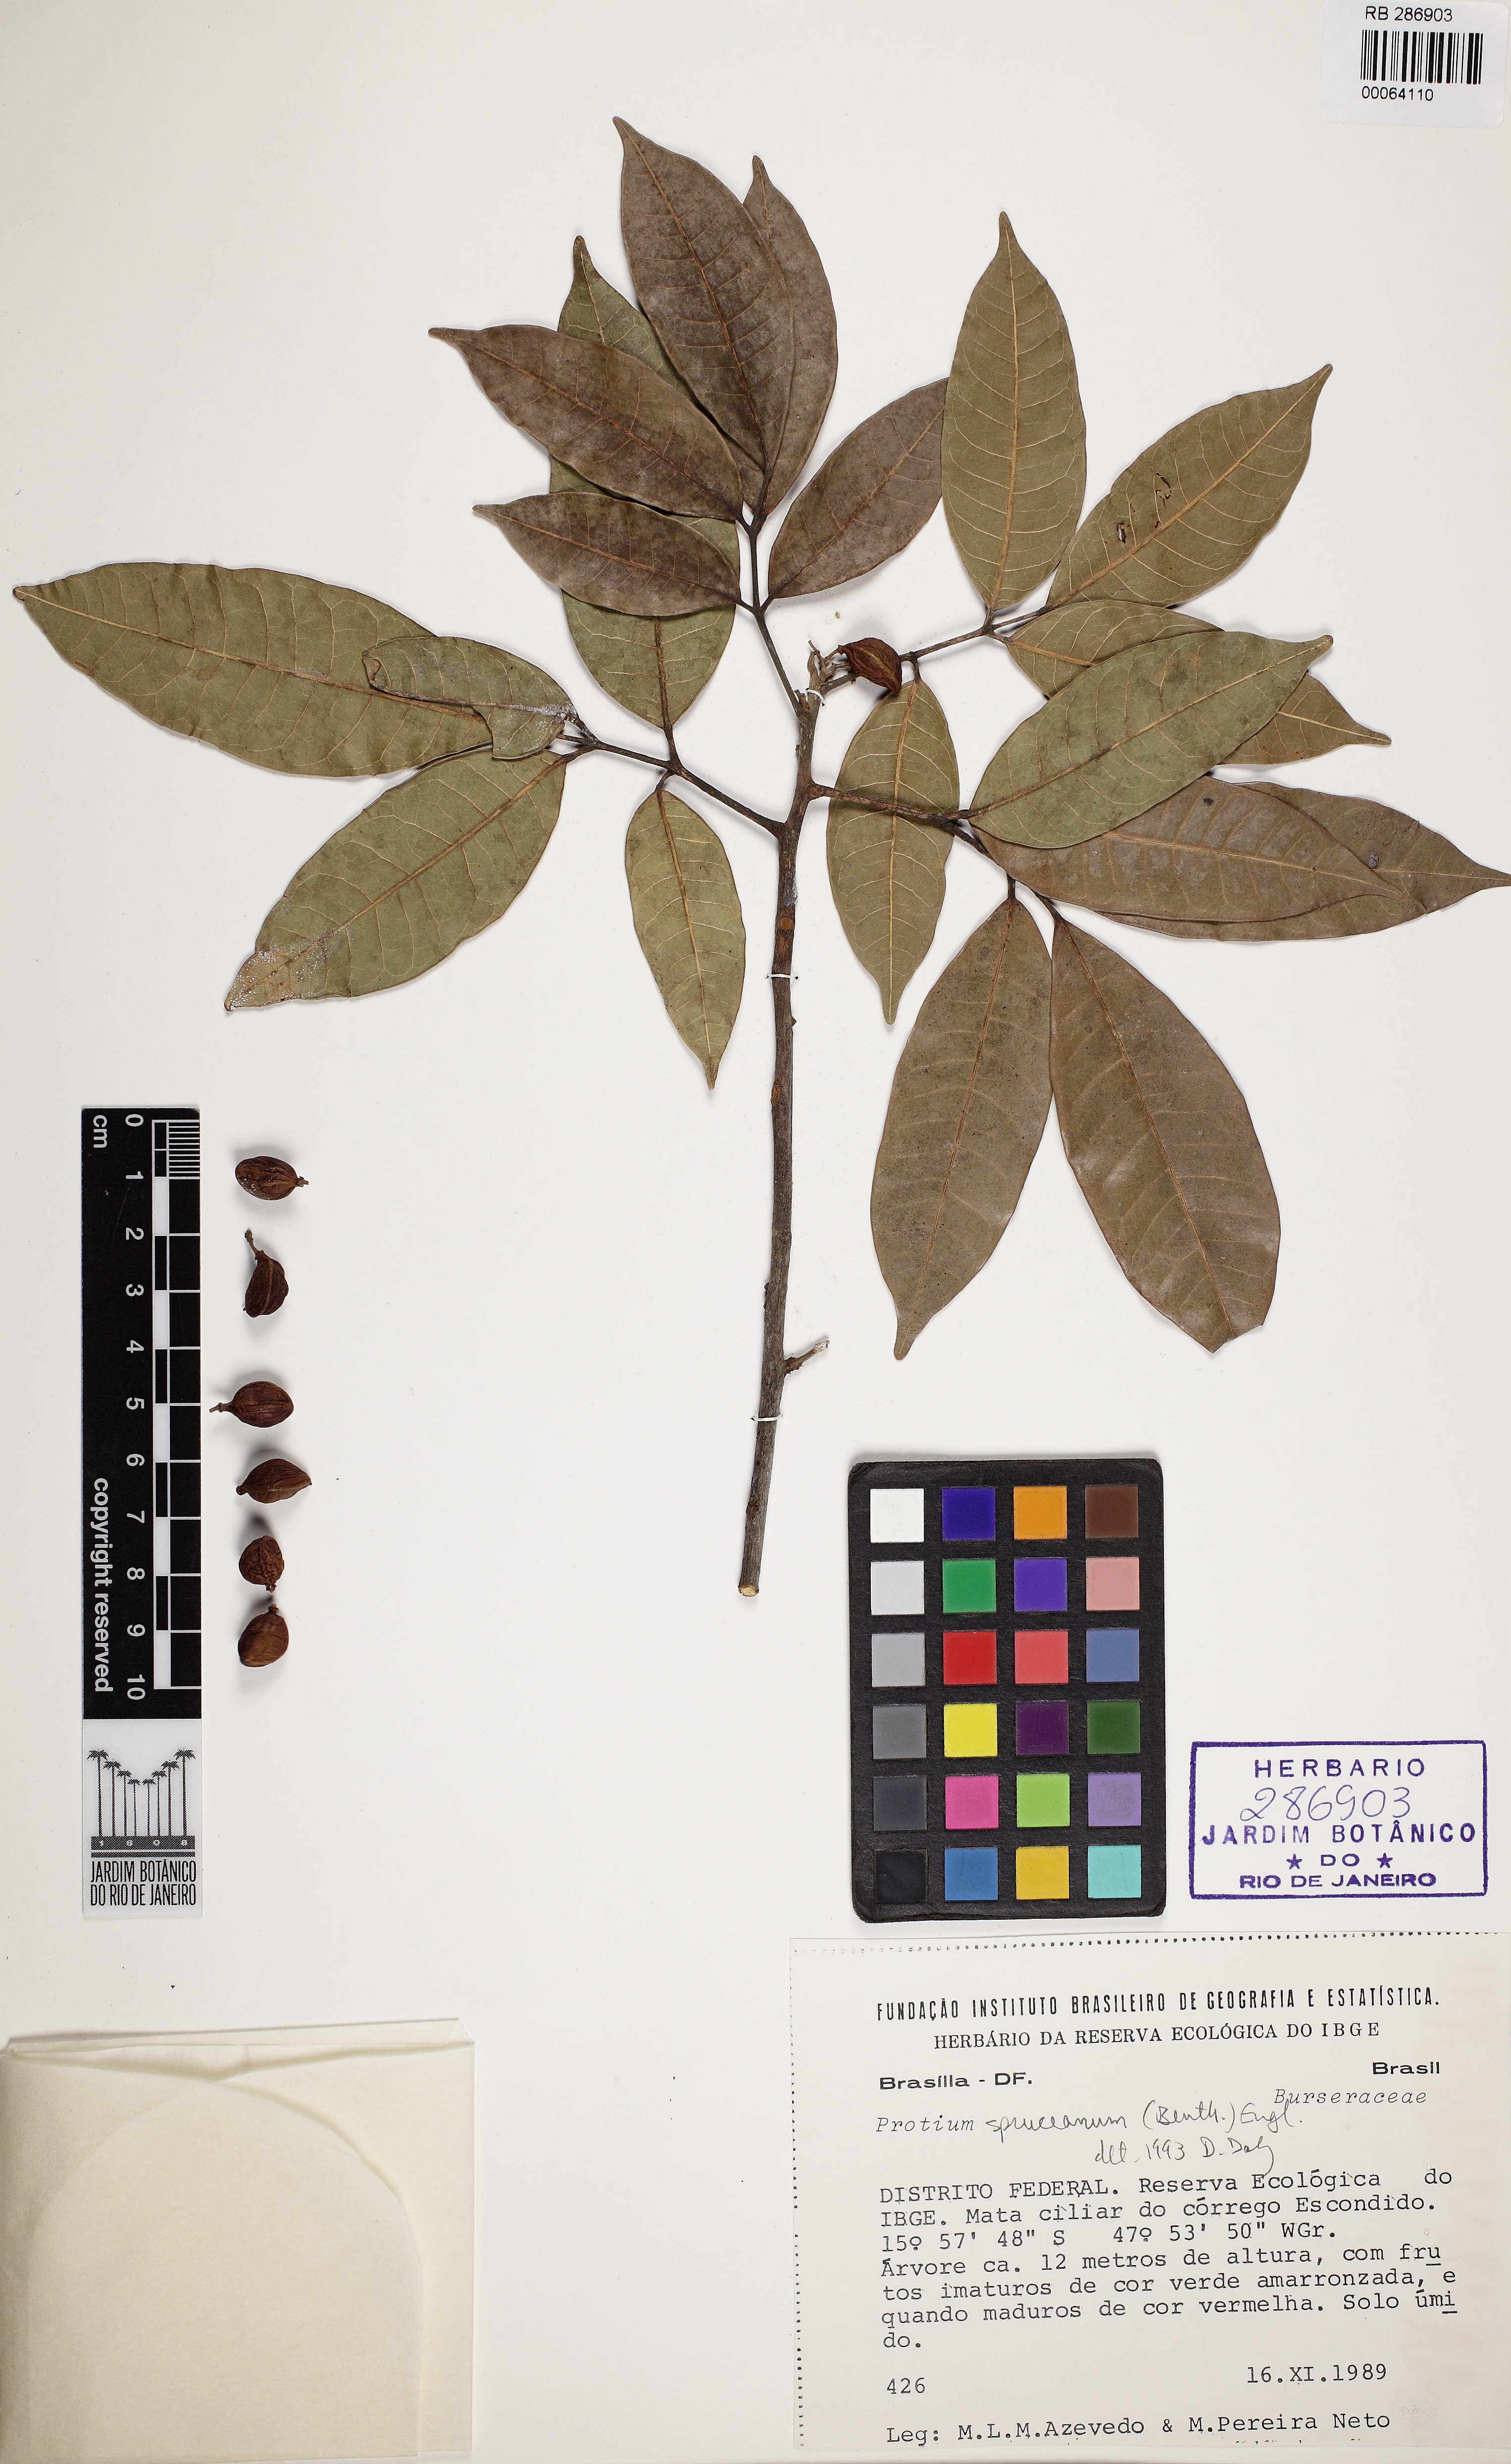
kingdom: Plantae
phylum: Tracheophyta
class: Magnoliopsida
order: Sapindales
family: Burseraceae
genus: Protium
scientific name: Protium spruceanum
